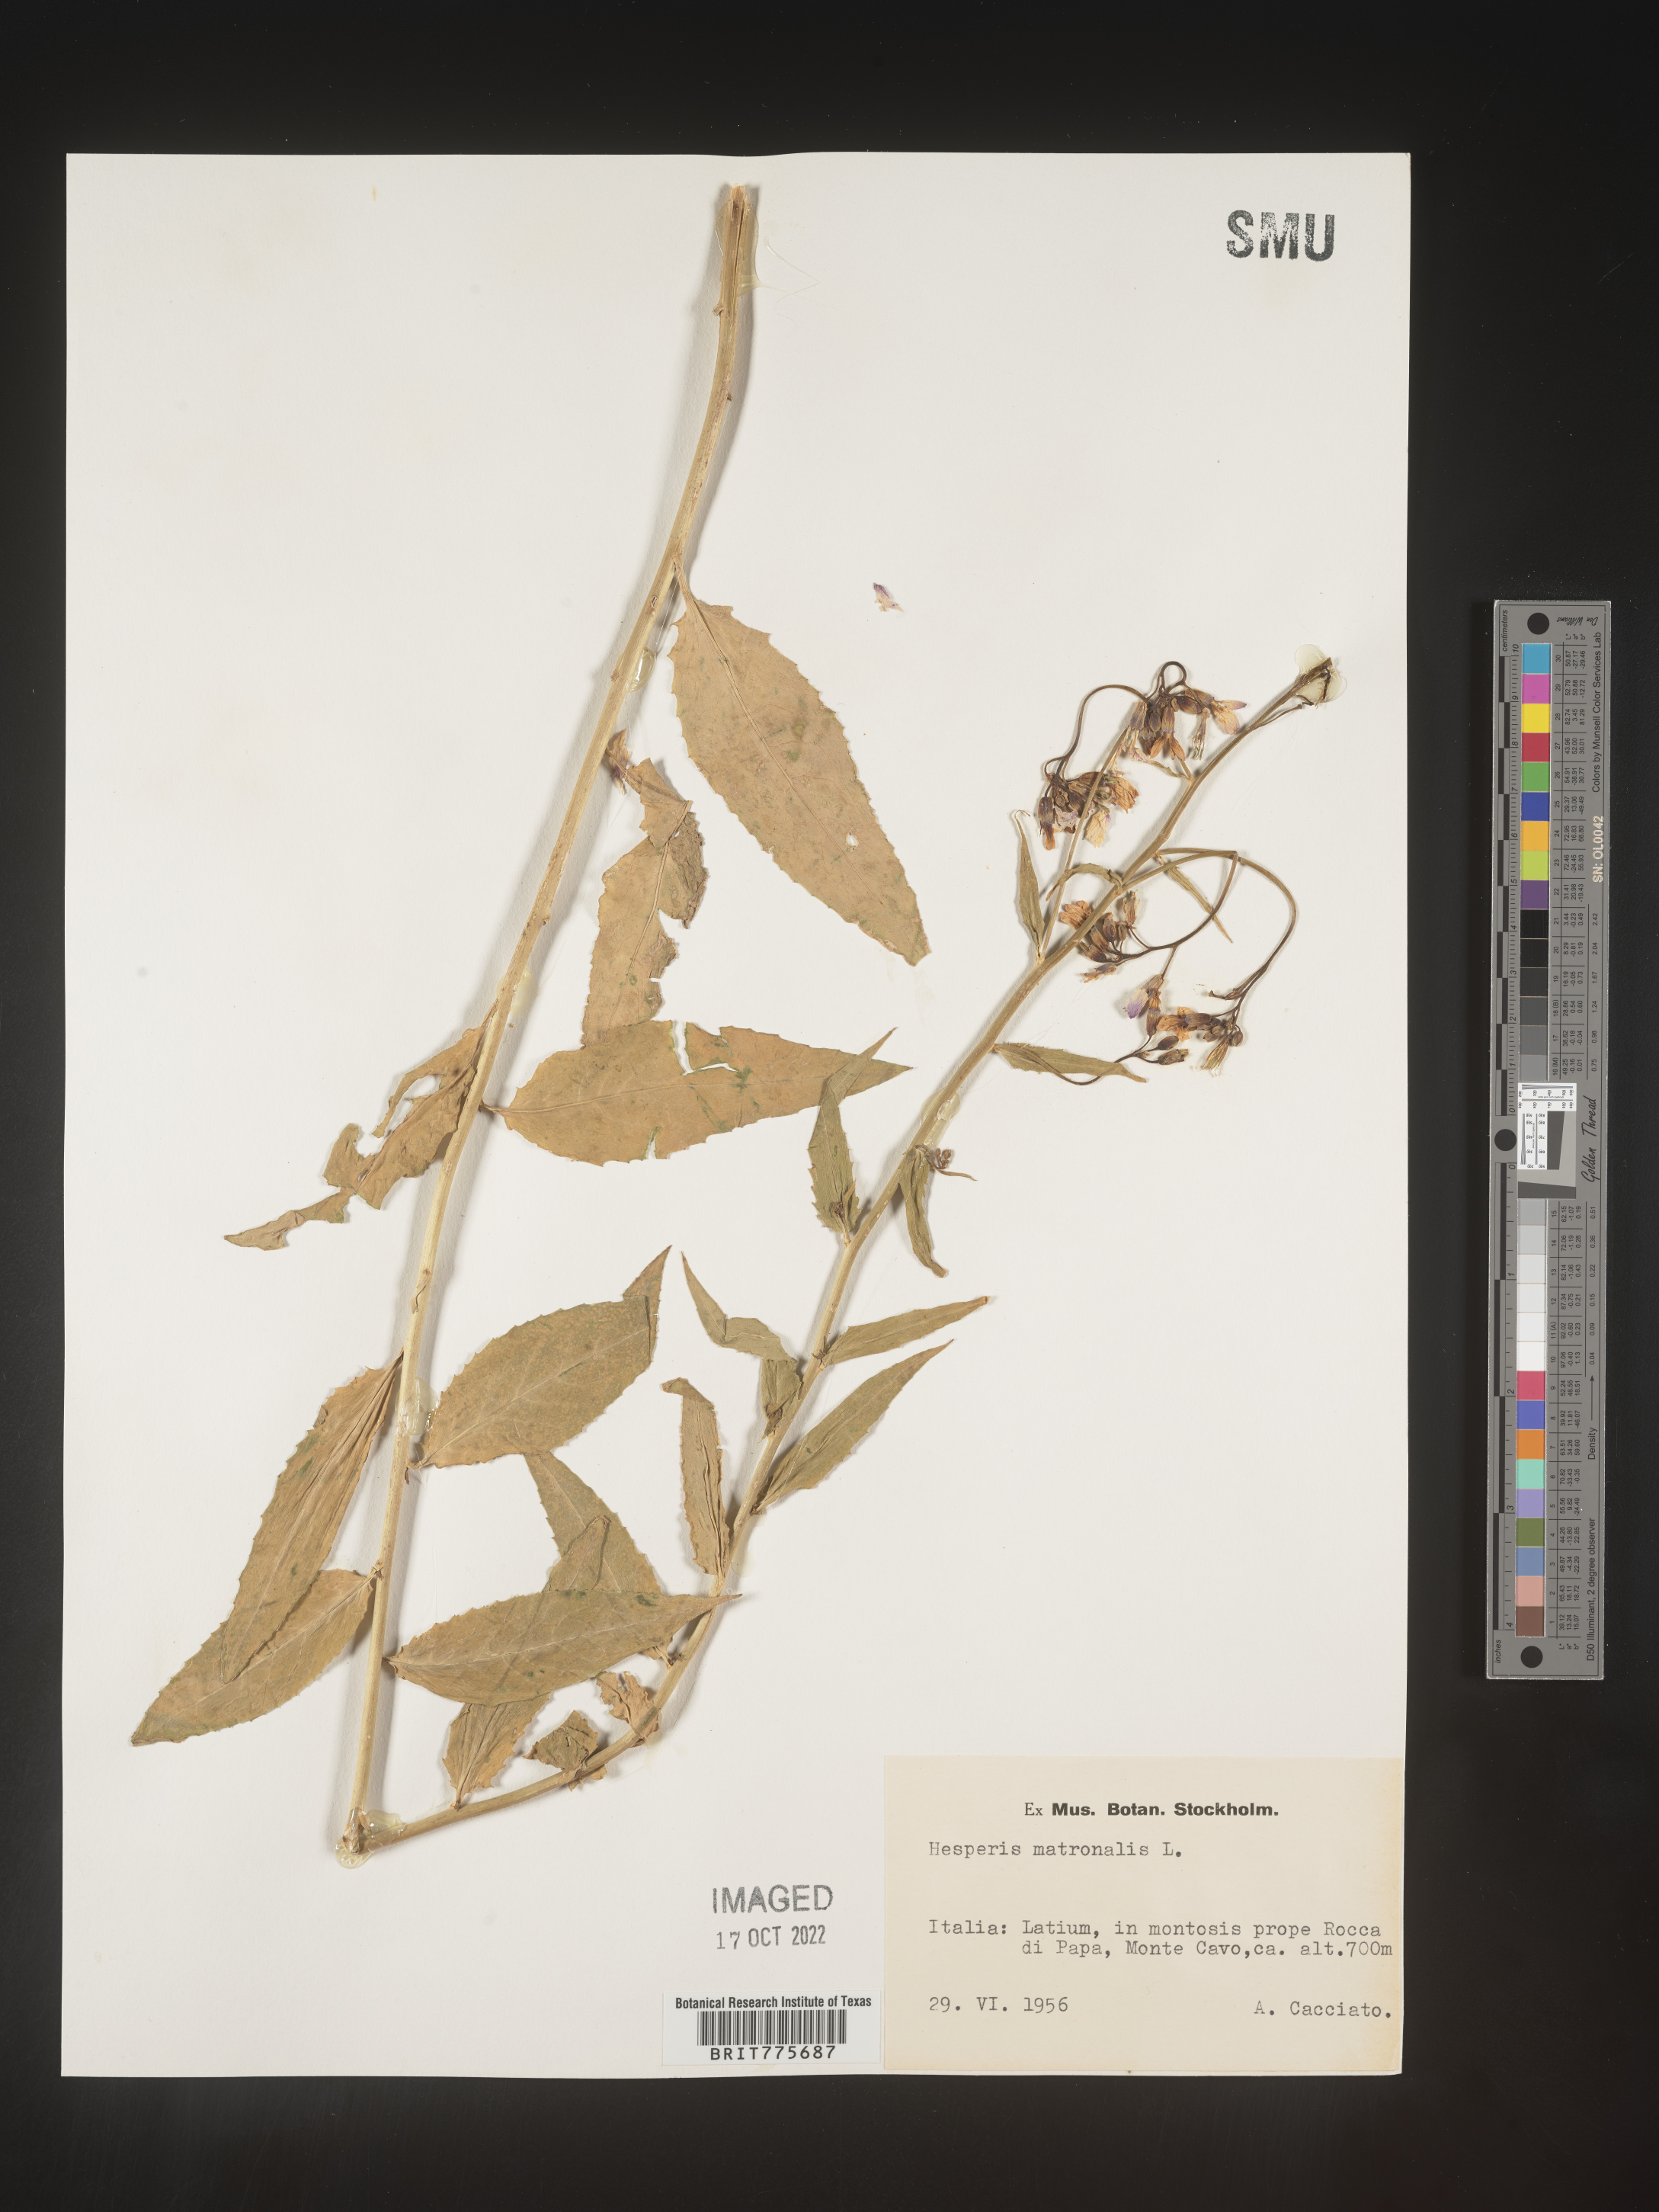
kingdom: Plantae
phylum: Tracheophyta
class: Magnoliopsida
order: Brassicales
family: Brassicaceae
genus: Hesperis
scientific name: Hesperis
